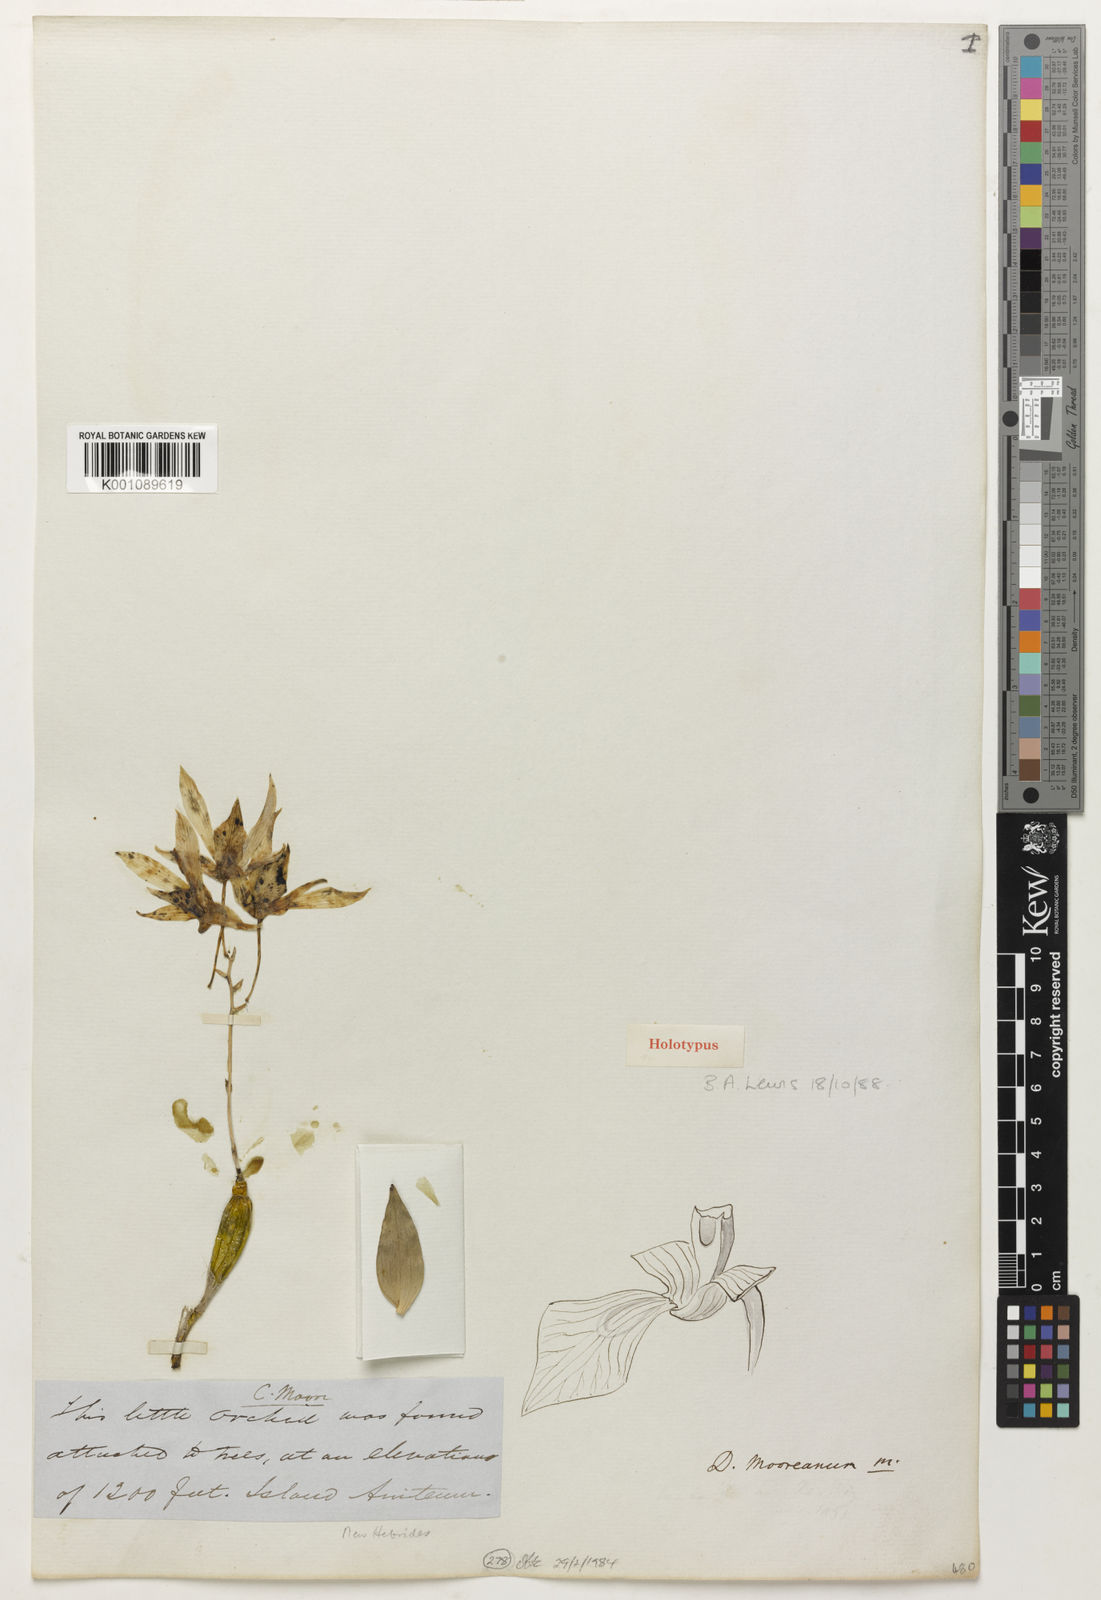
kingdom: Plantae
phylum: Tracheophyta
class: Liliopsida
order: Asparagales
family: Orchidaceae
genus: Dendrobium
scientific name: Dendrobium mooreanum
